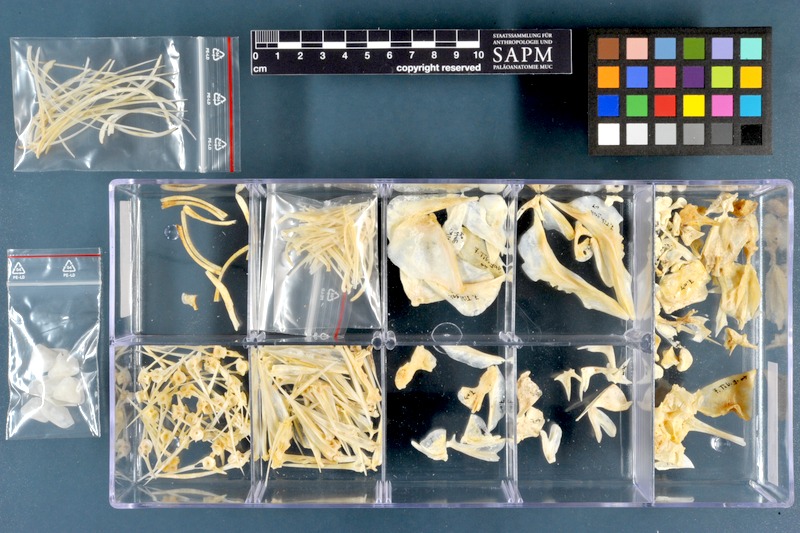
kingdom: Animalia
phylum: Chordata
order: Perciformes
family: Cichlidae
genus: Sarotherodon
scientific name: Sarotherodon galilaeus
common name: Mango tilapia
